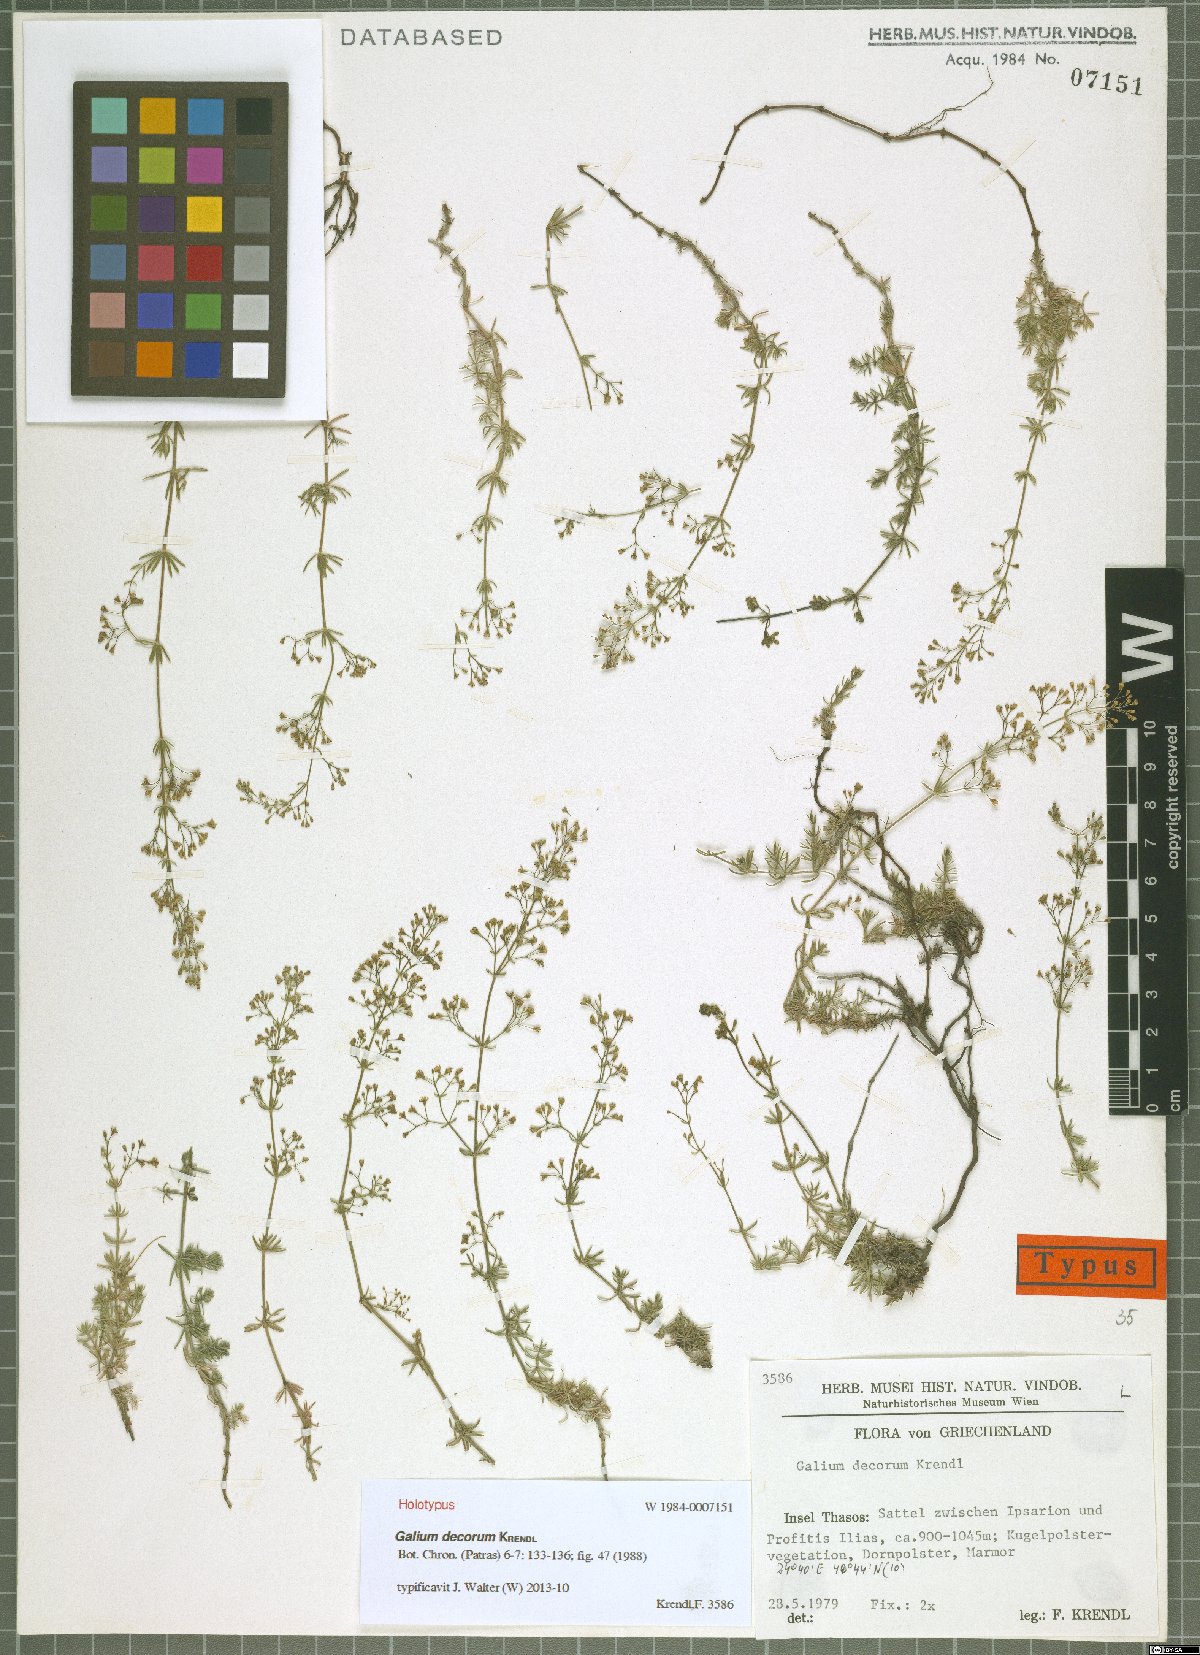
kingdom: Plantae
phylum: Tracheophyta
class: Magnoliopsida
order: Gentianales
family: Rubiaceae
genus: Galium
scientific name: Galium decorum
